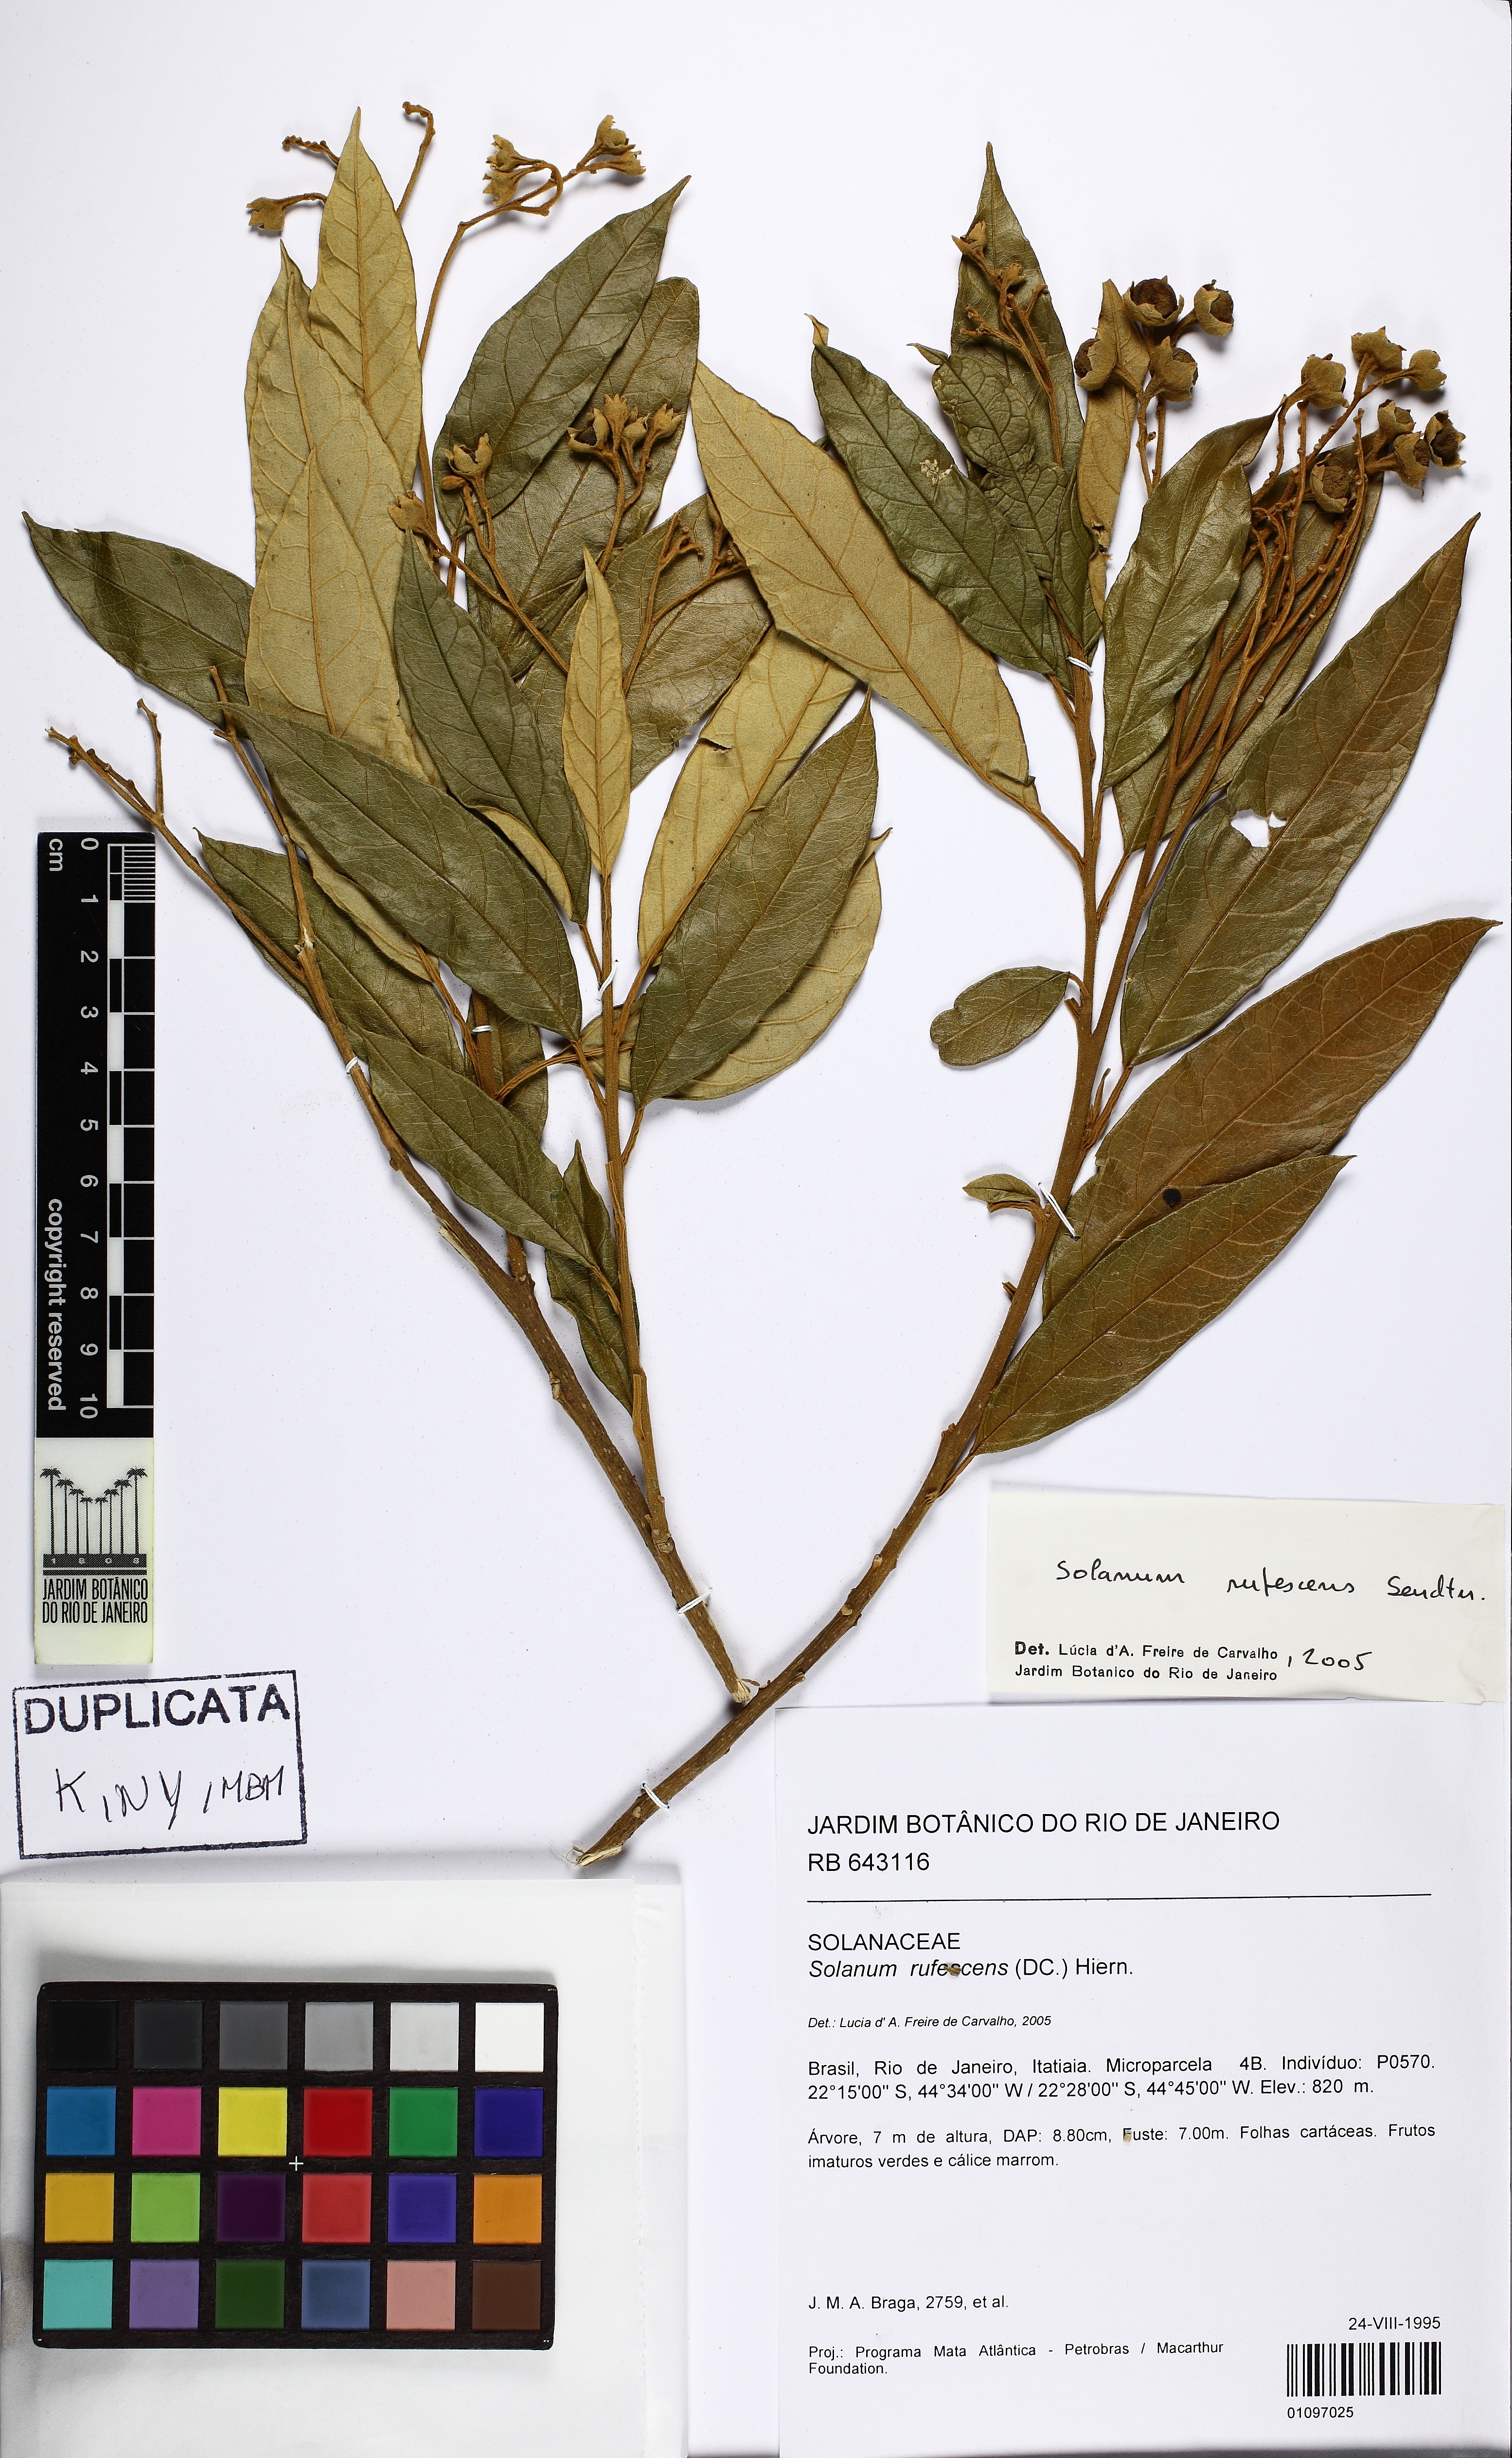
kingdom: Plantae
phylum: Tracheophyta
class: Magnoliopsida
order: Solanales
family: Solanaceae
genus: Solanum
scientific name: Solanum rufescens
